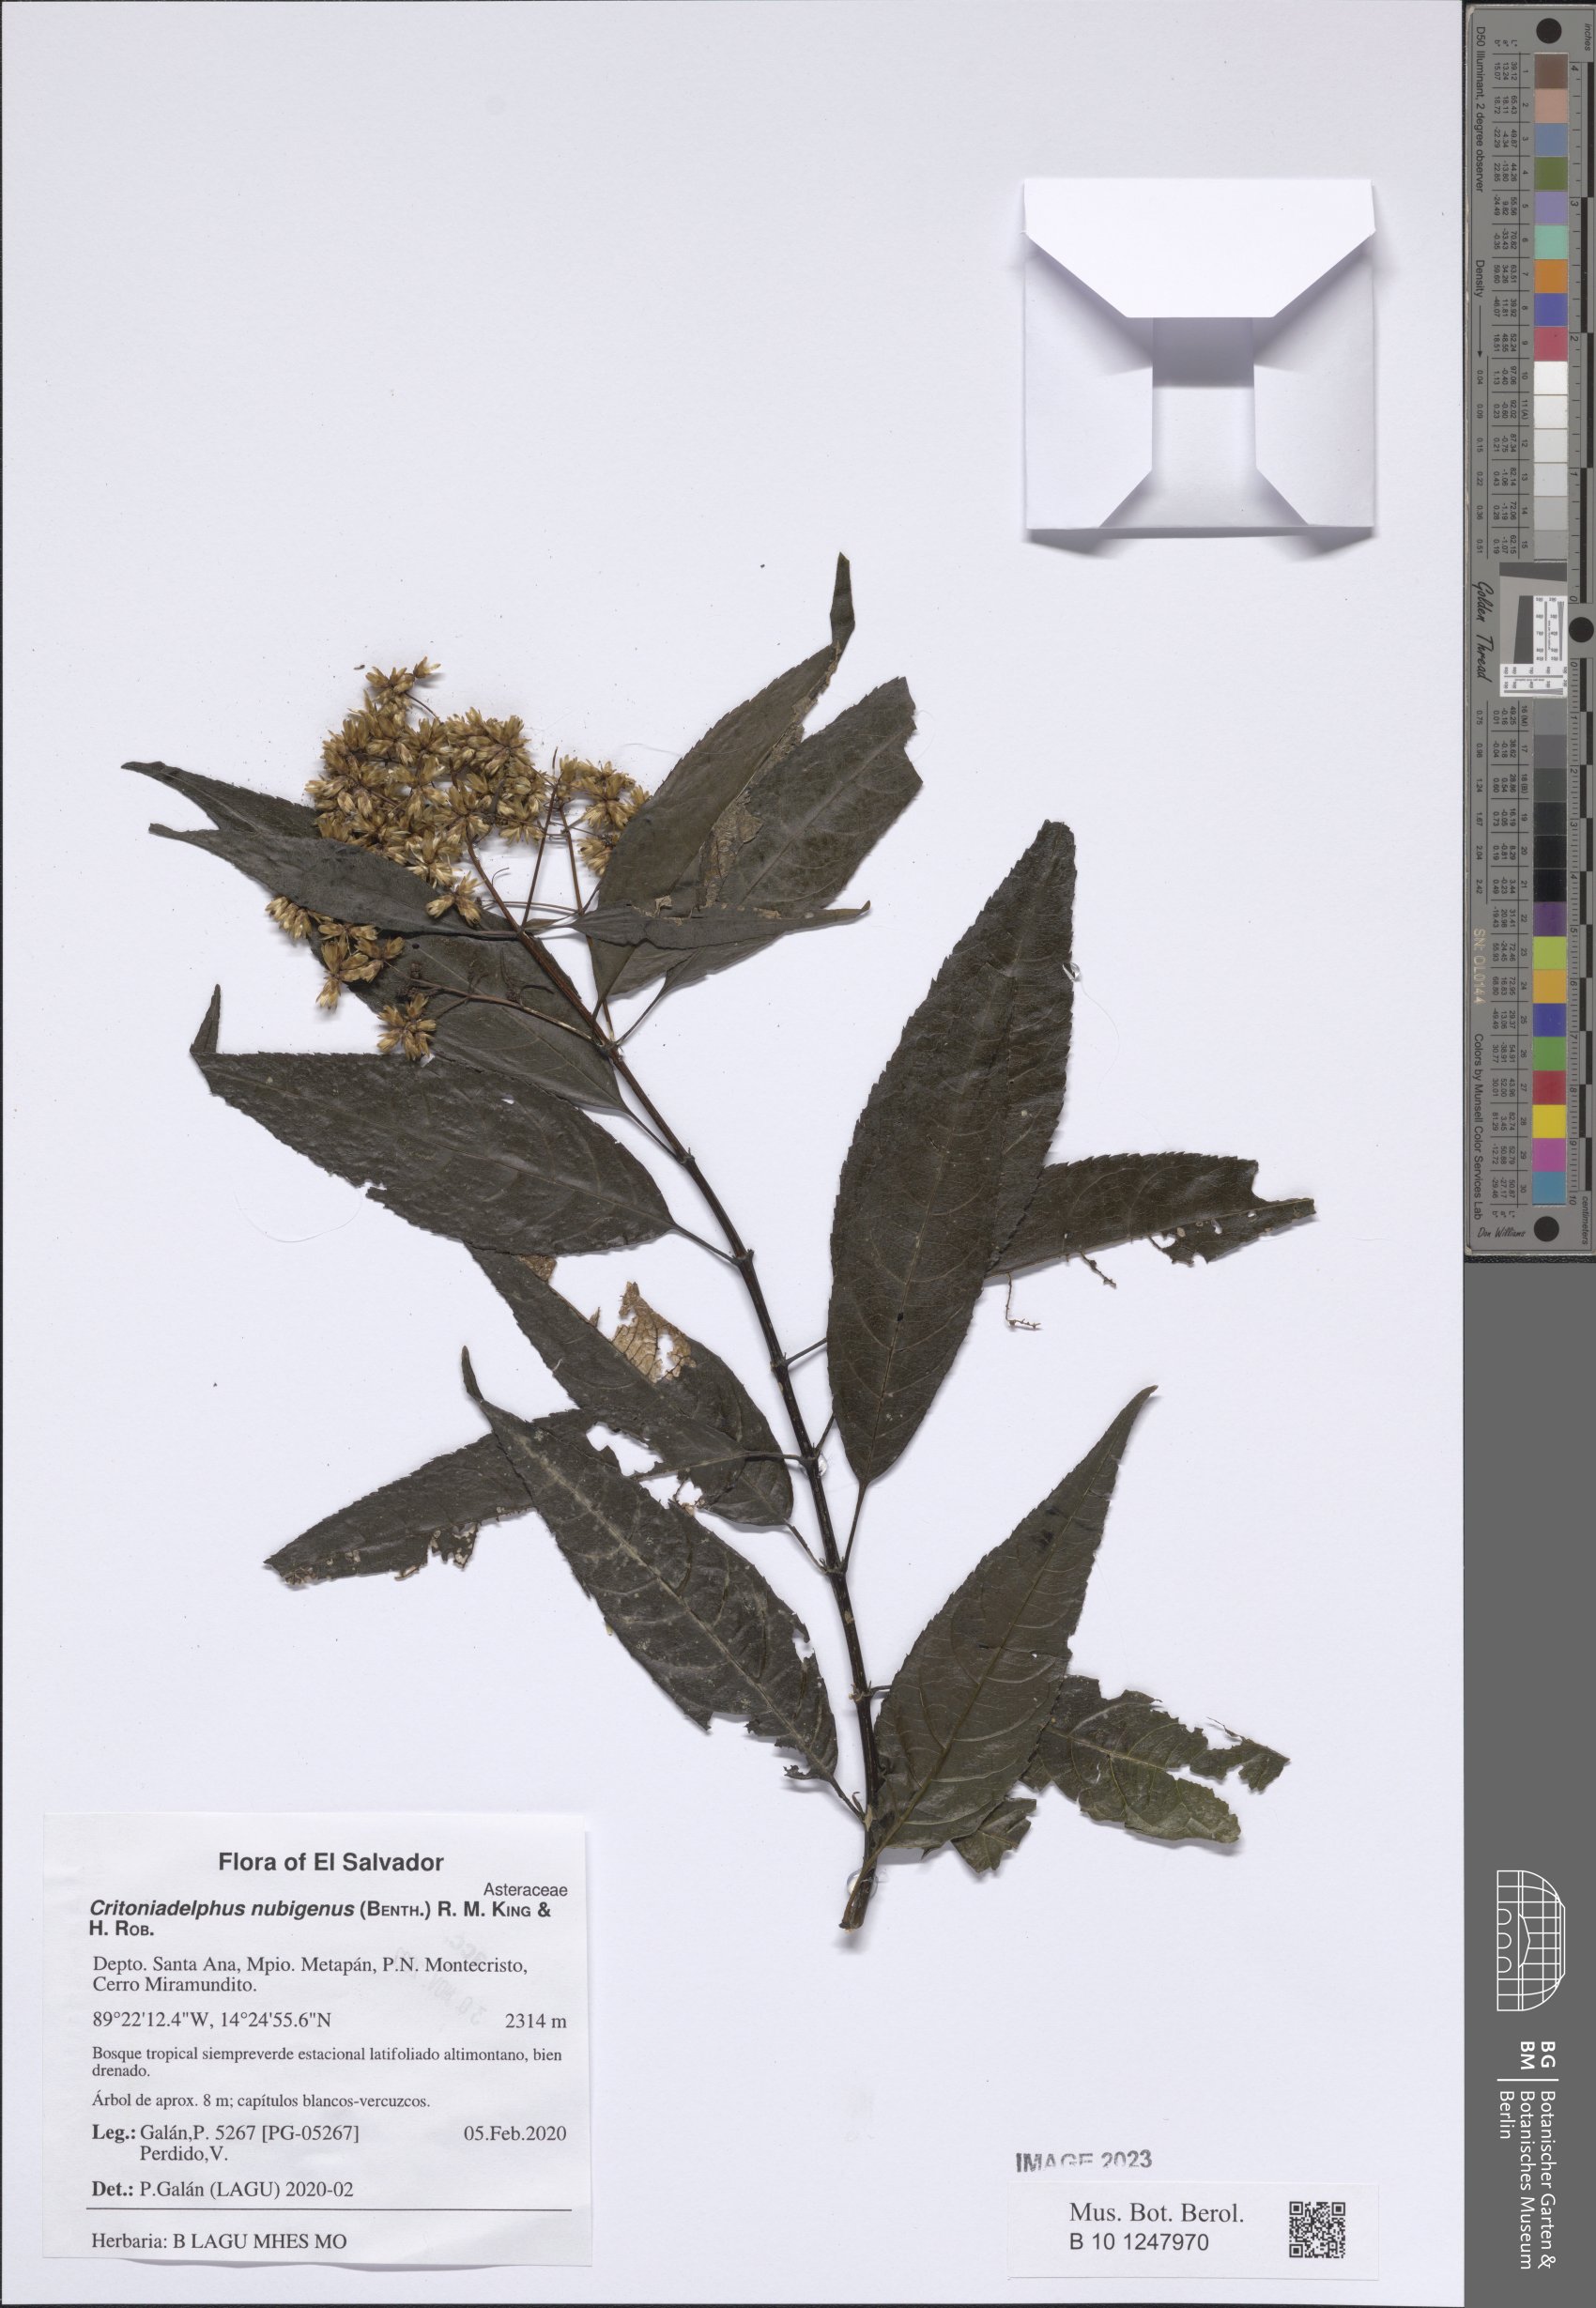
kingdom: Plantae
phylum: Tracheophyta
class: Magnoliopsida
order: Asterales
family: Asteraceae
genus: Critonia
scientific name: Critonia nubigena
